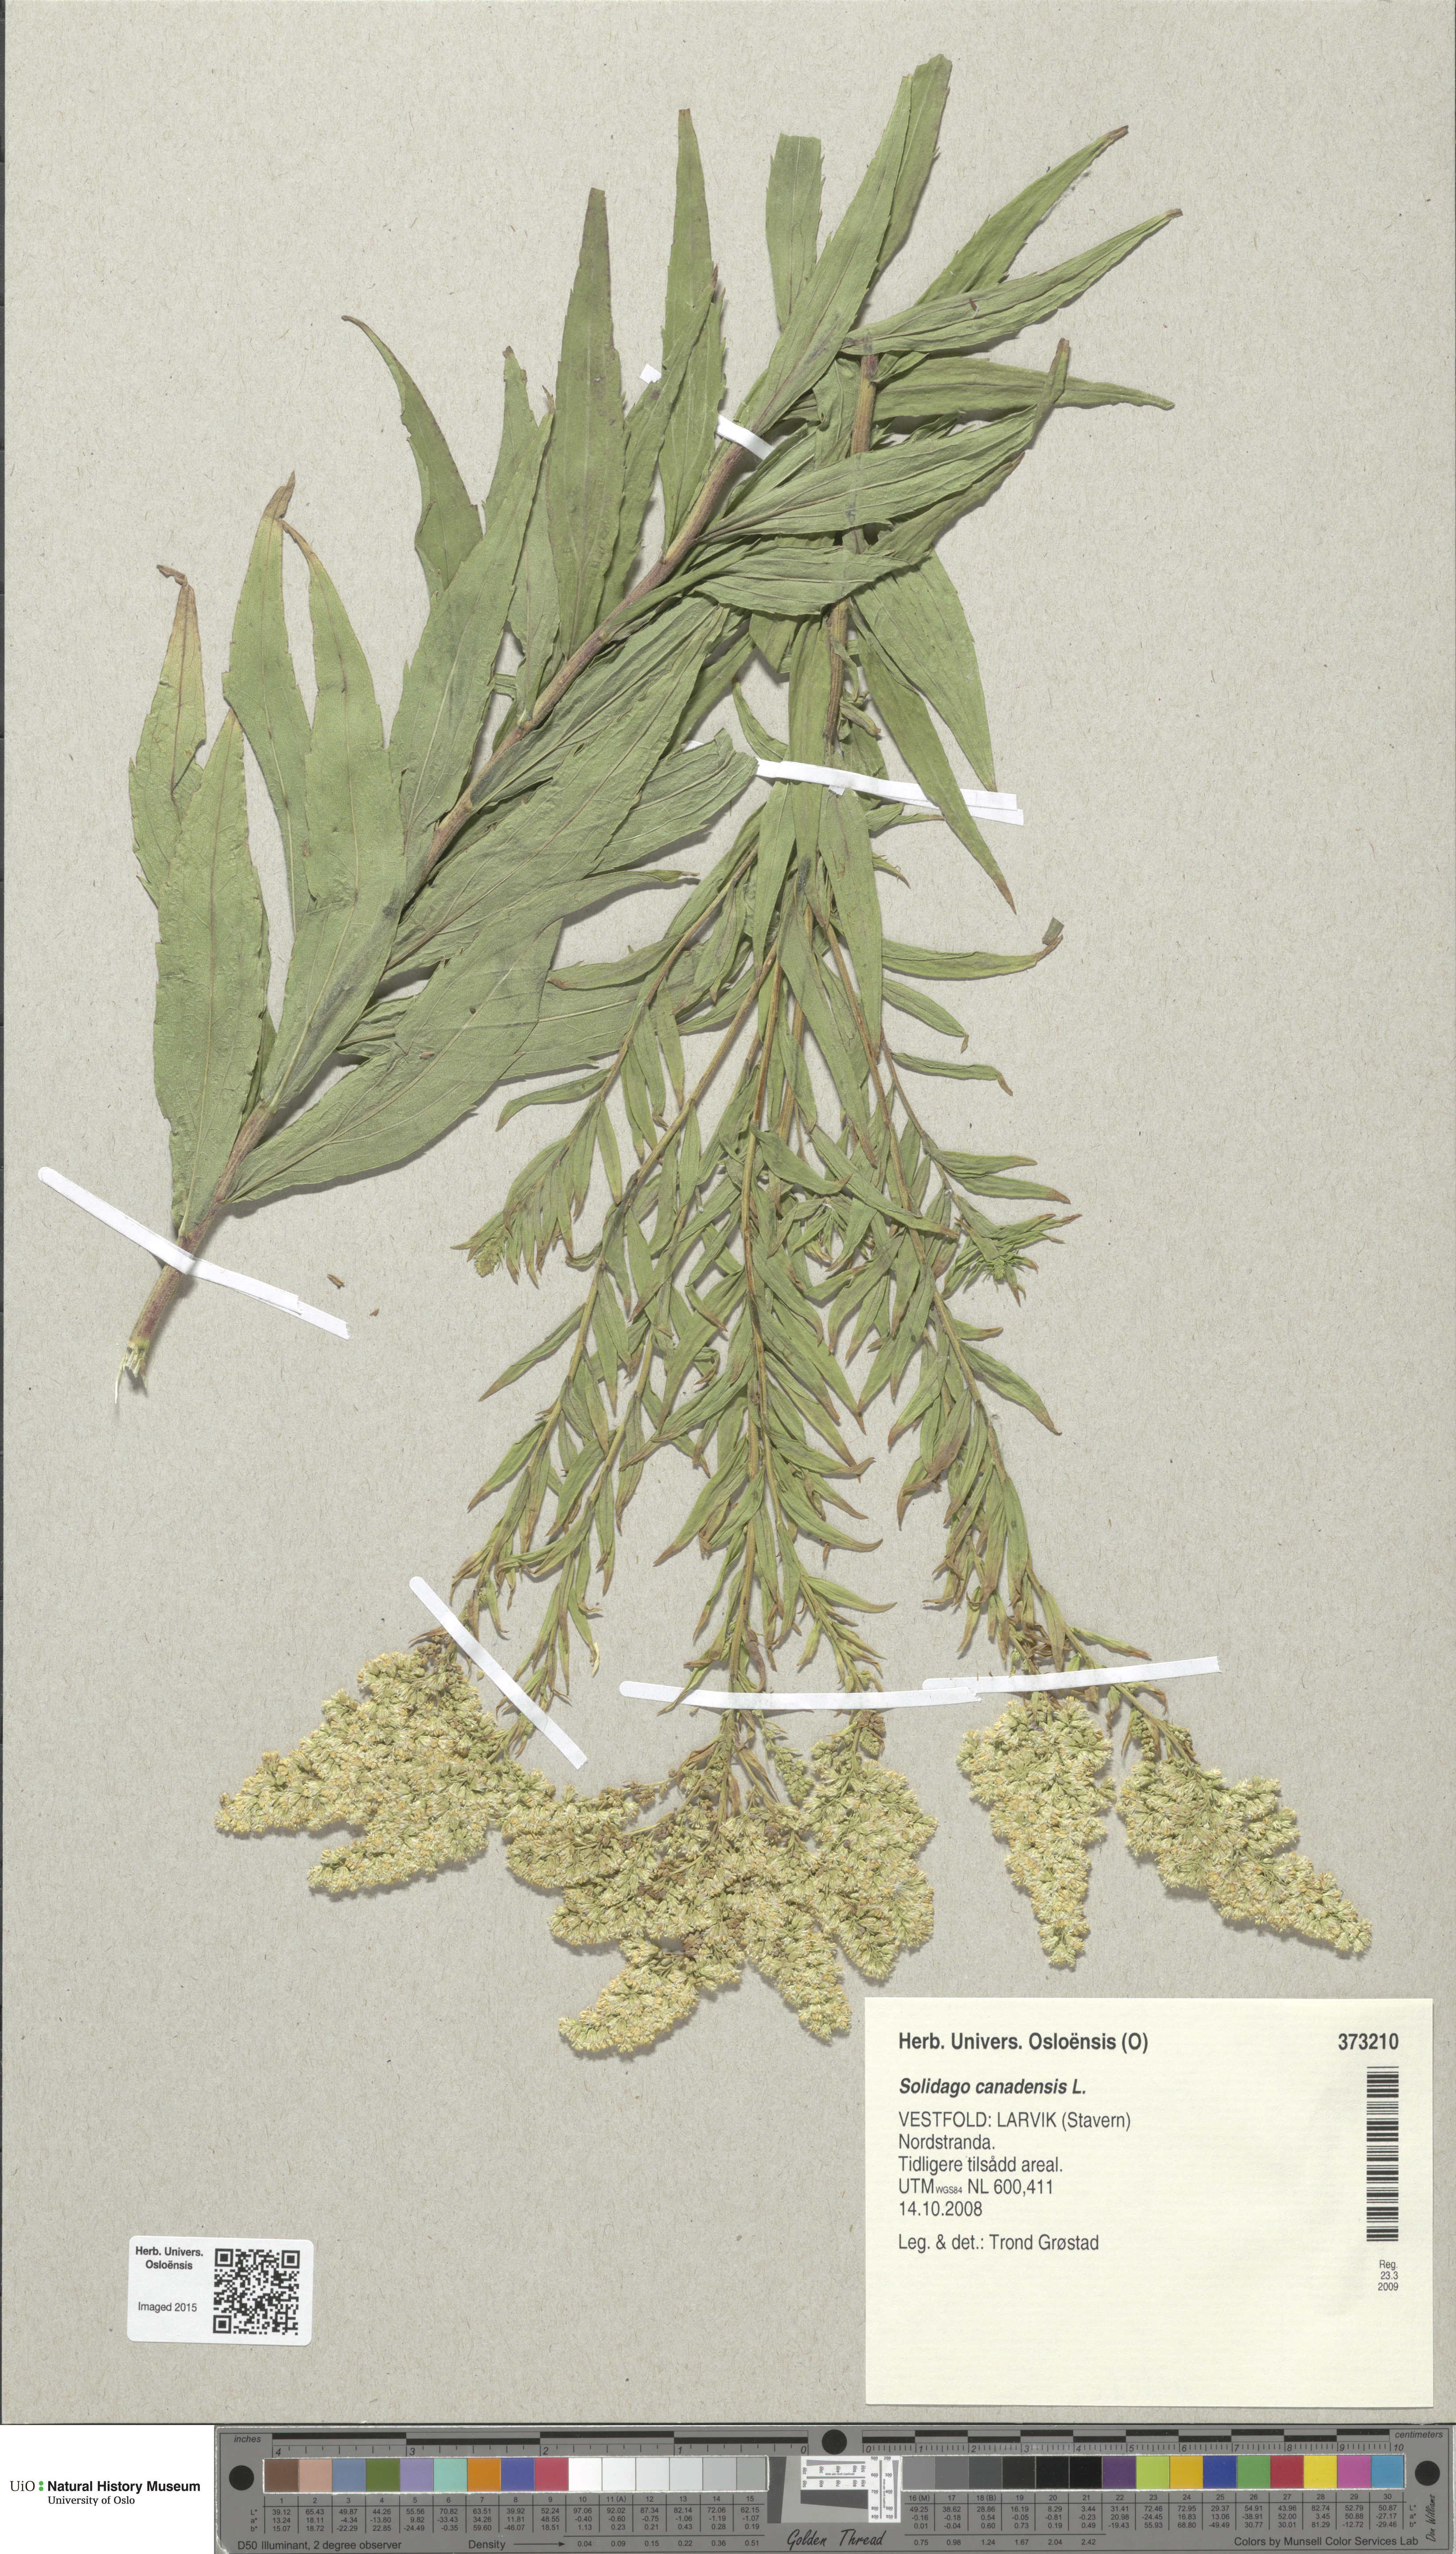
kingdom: Plantae
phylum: Tracheophyta
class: Magnoliopsida
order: Asterales
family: Asteraceae
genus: Solidago
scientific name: Solidago canadensis
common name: Canada goldenrod
